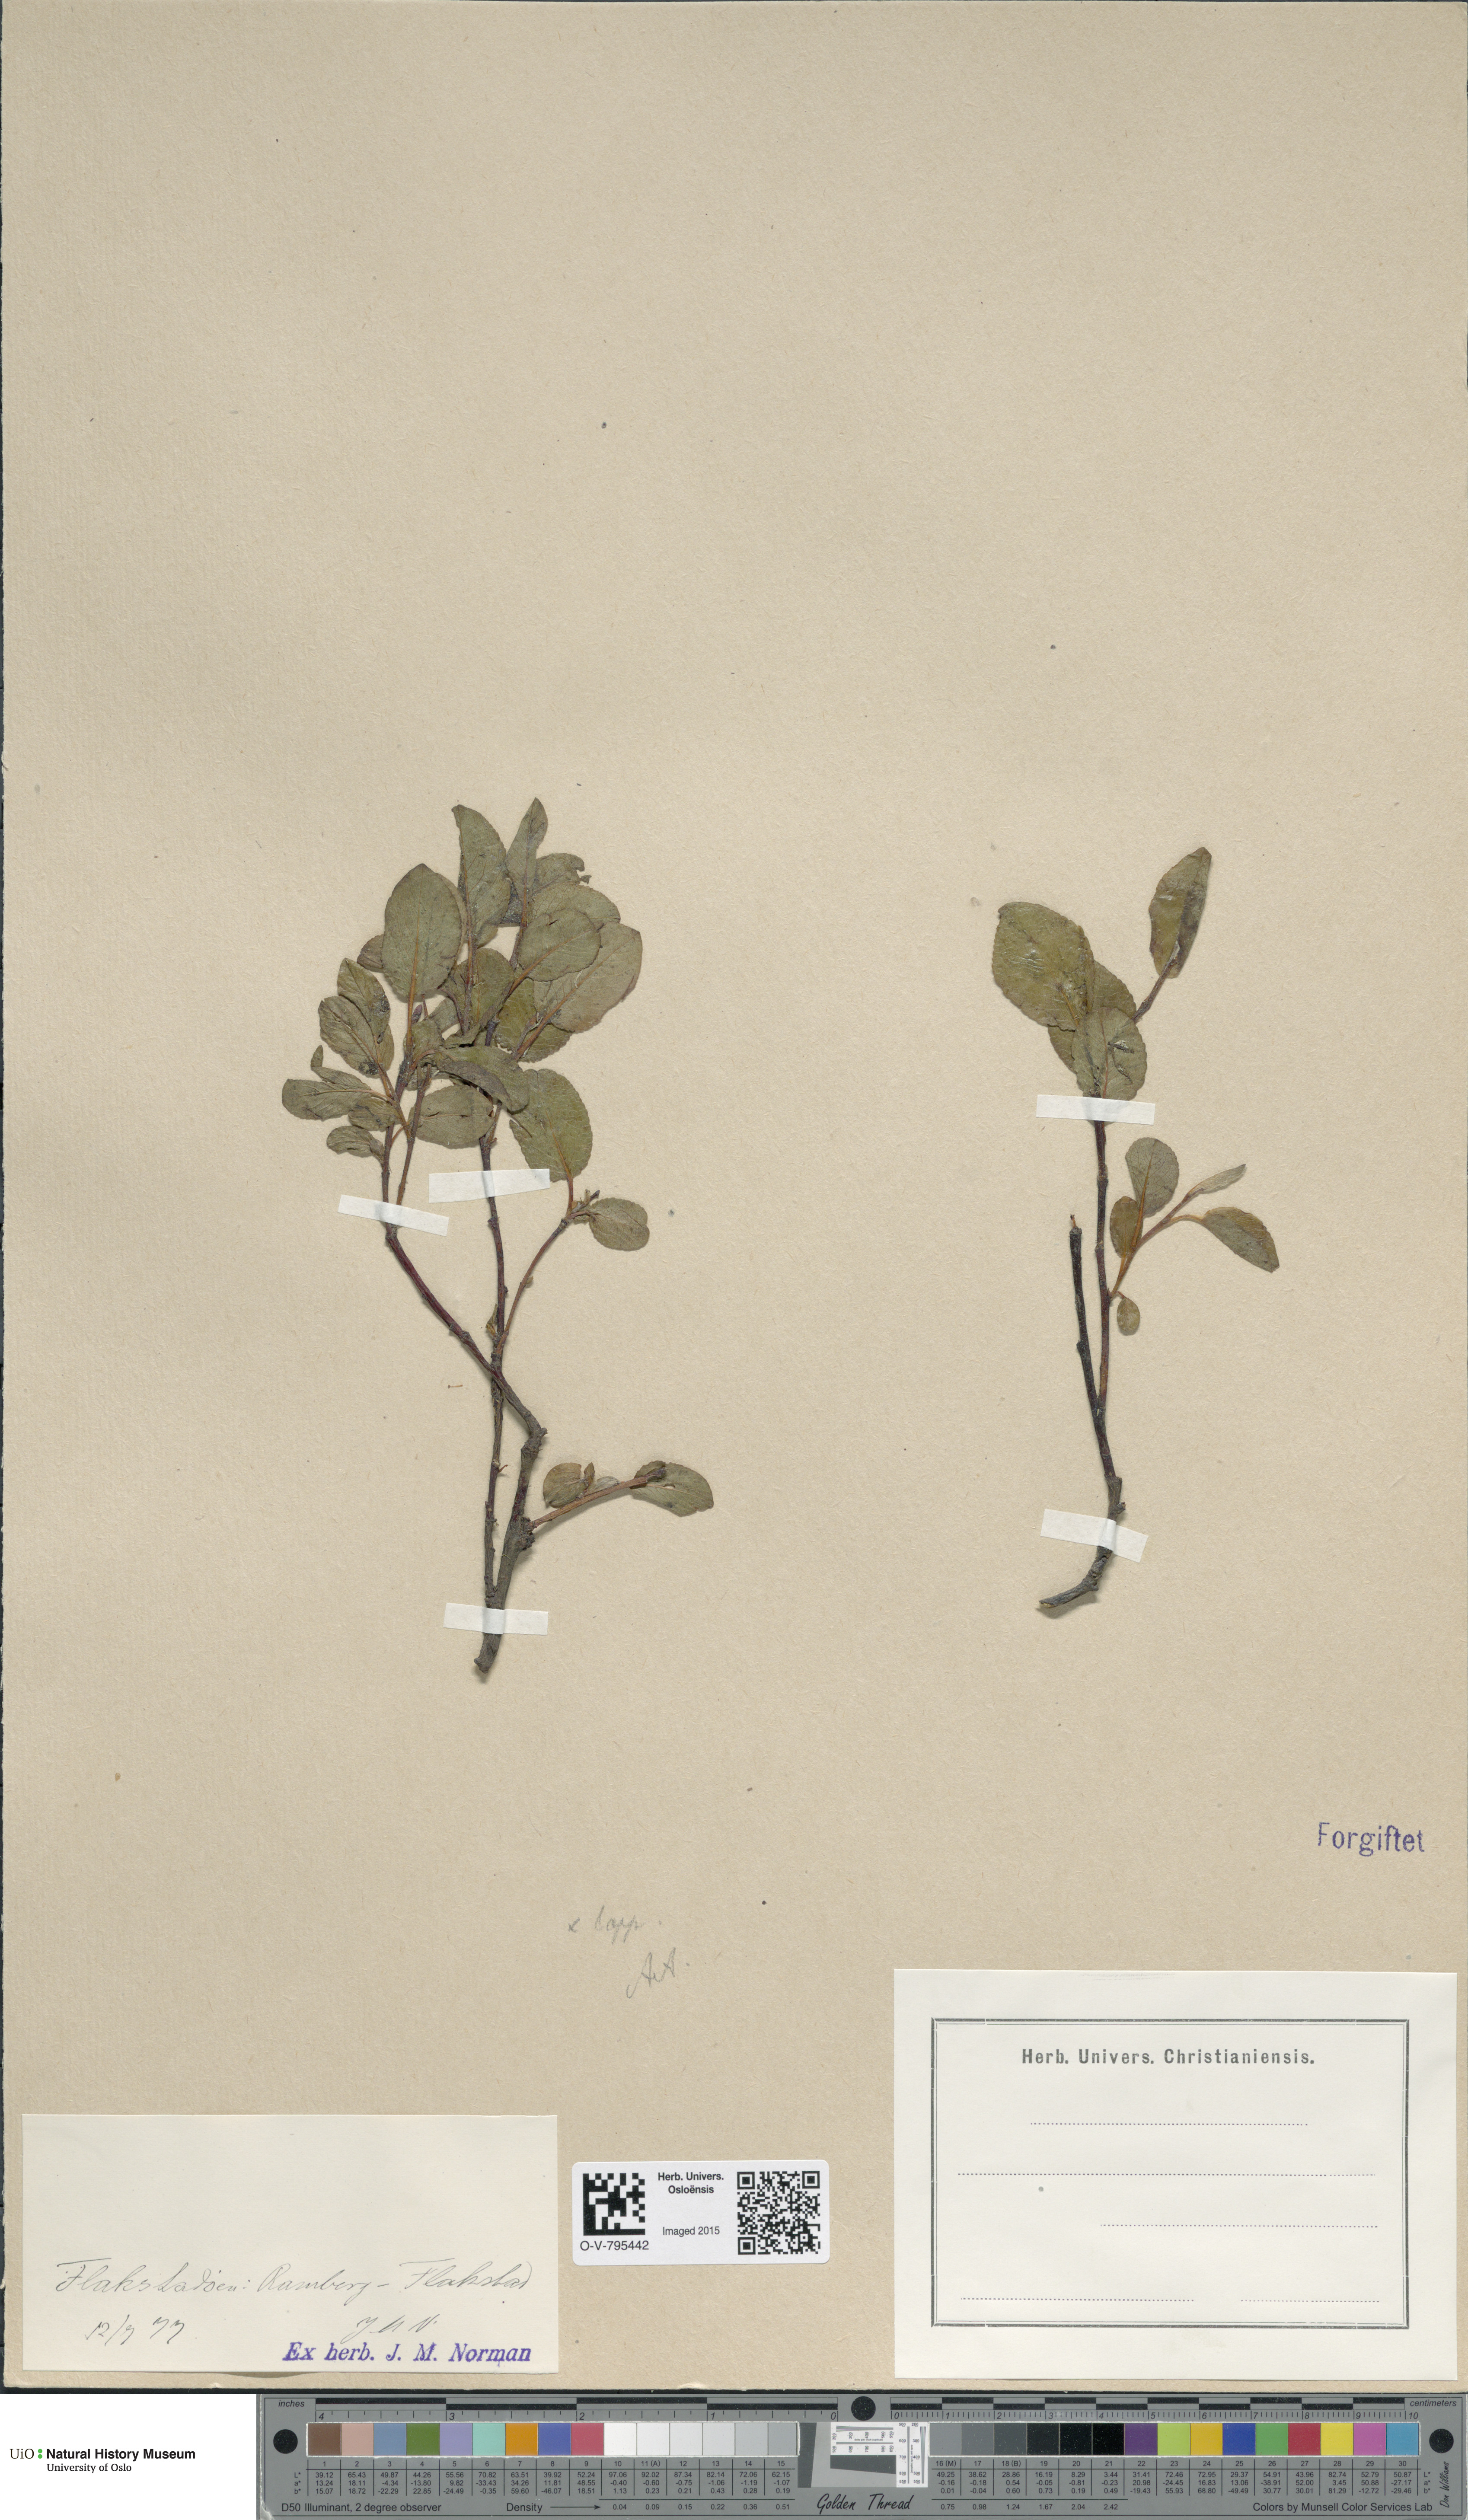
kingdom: Plantae
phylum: Tracheophyta
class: Magnoliopsida
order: Malpighiales
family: Salicaceae
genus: Salix
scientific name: Salix
